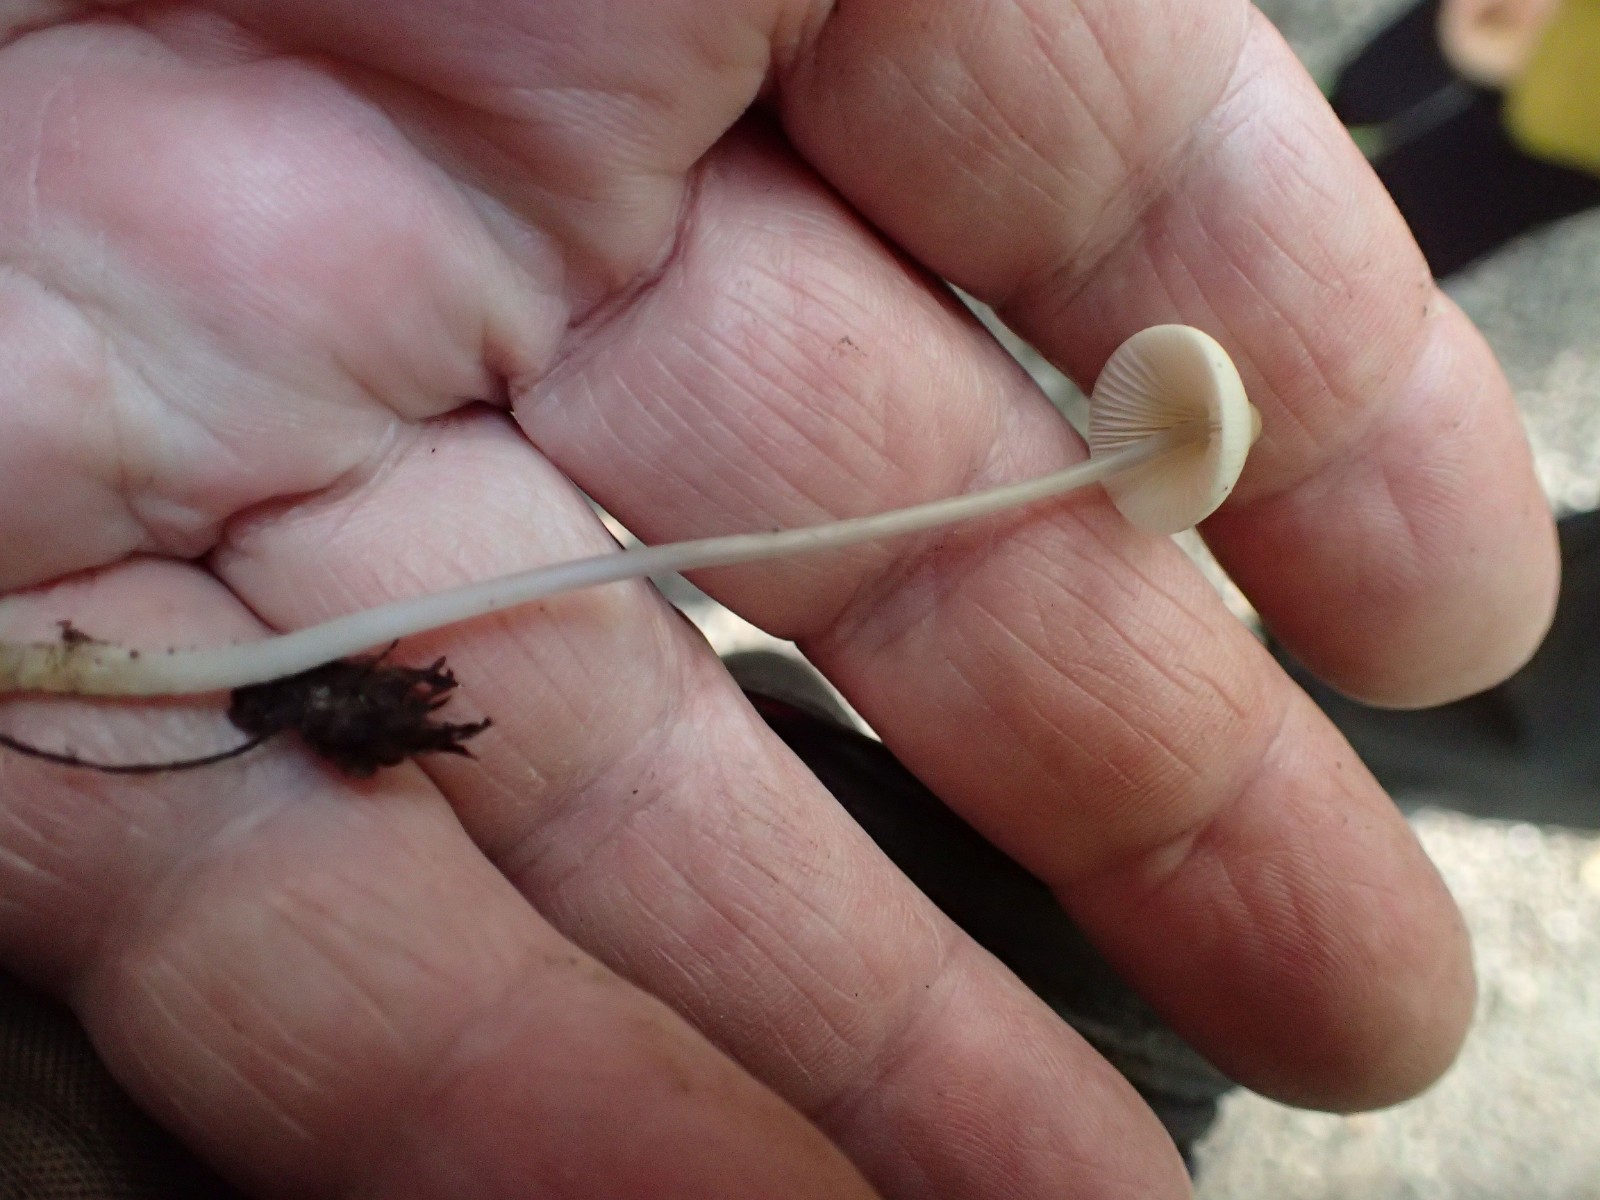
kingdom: Fungi
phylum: Basidiomycota
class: Agaricomycetes
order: Agaricales
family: Mycenaceae
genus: Mycena
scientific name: Mycena vitilis
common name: blankstokket huesvamp
